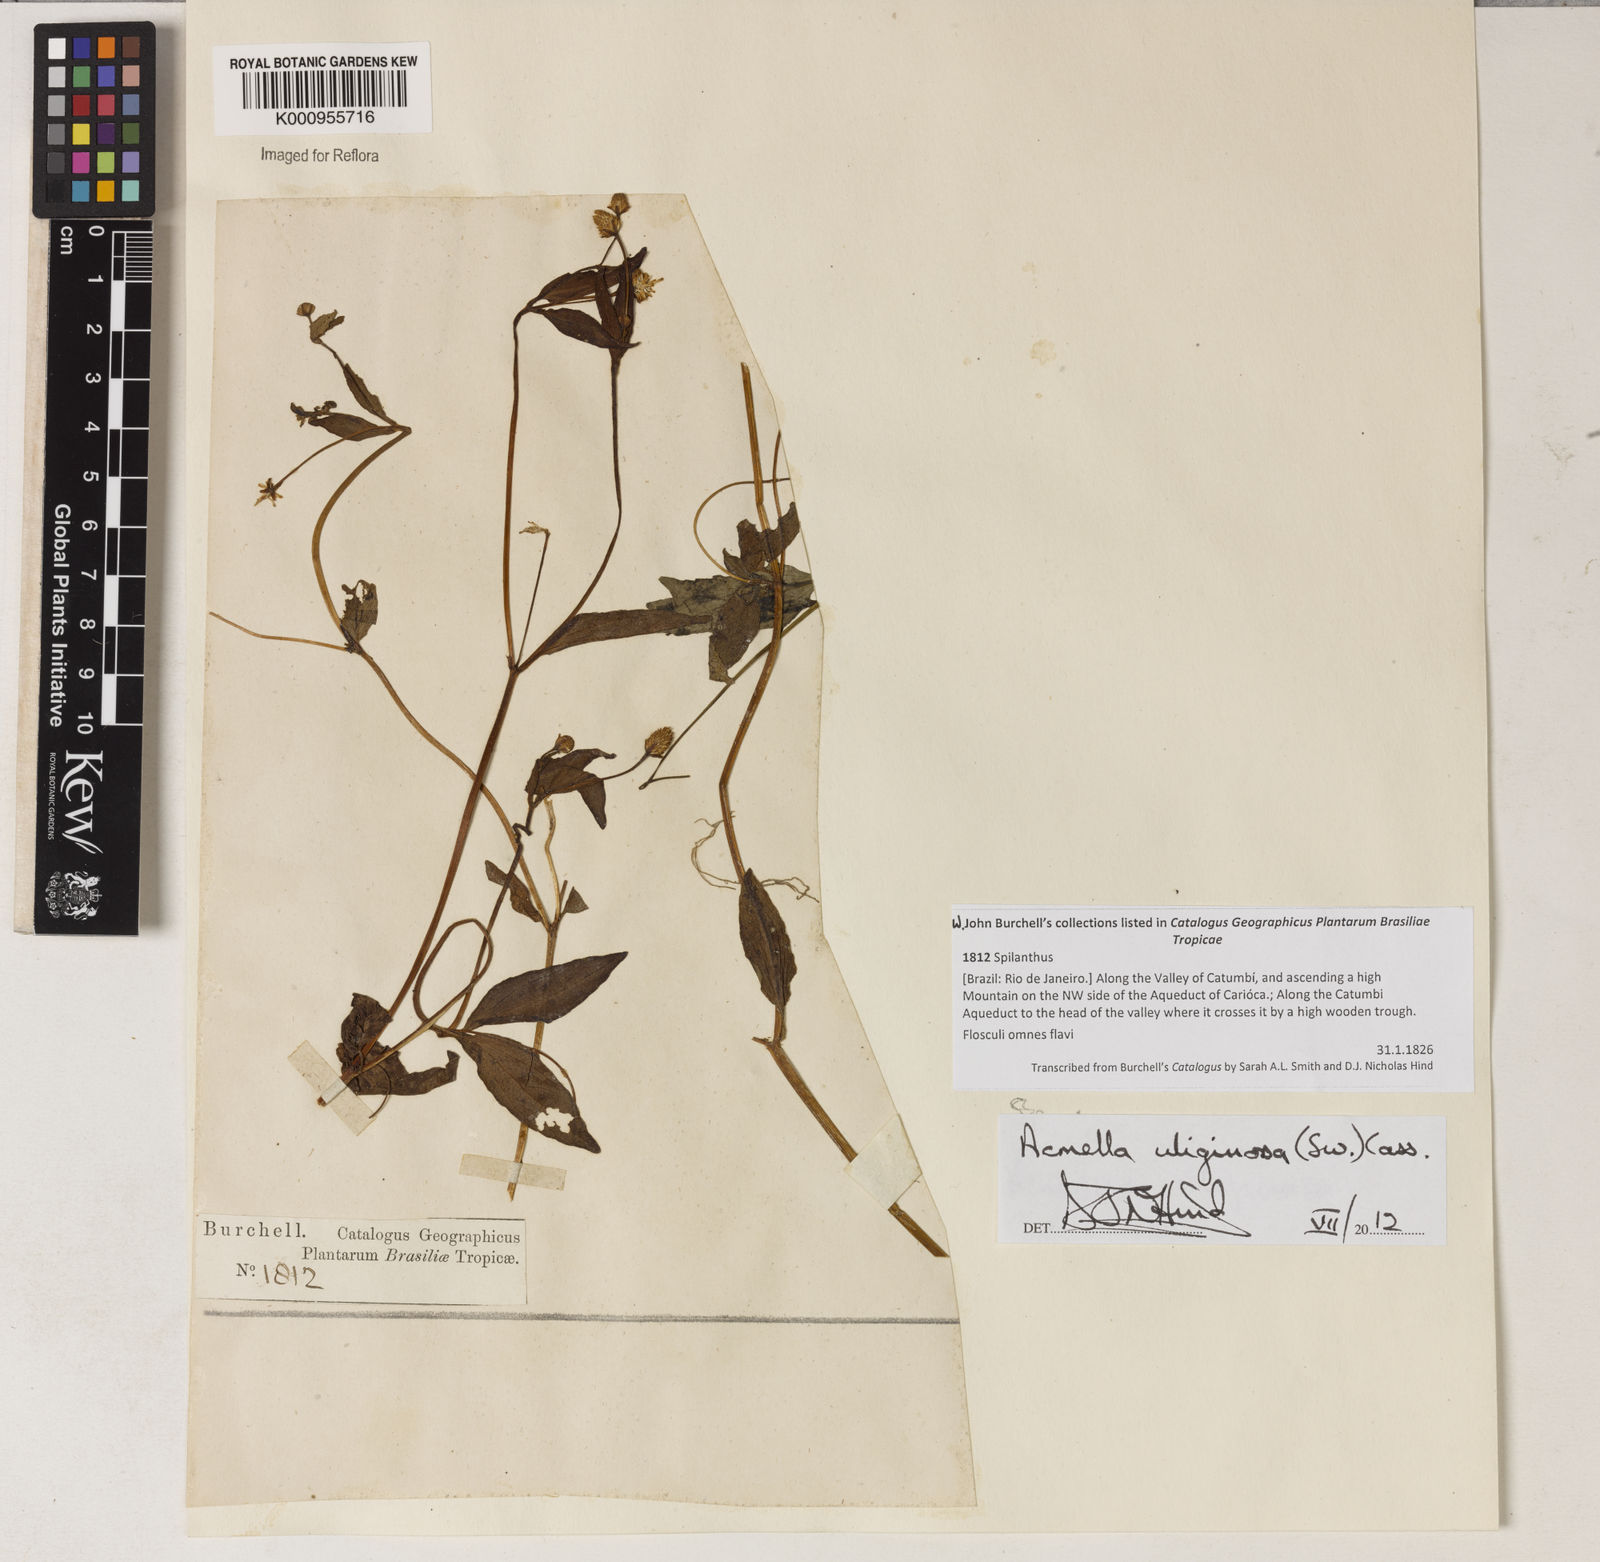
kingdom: Plantae
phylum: Tracheophyta
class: Magnoliopsida
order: Asterales
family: Asteraceae
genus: Acmella
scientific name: Acmella uliginosa
